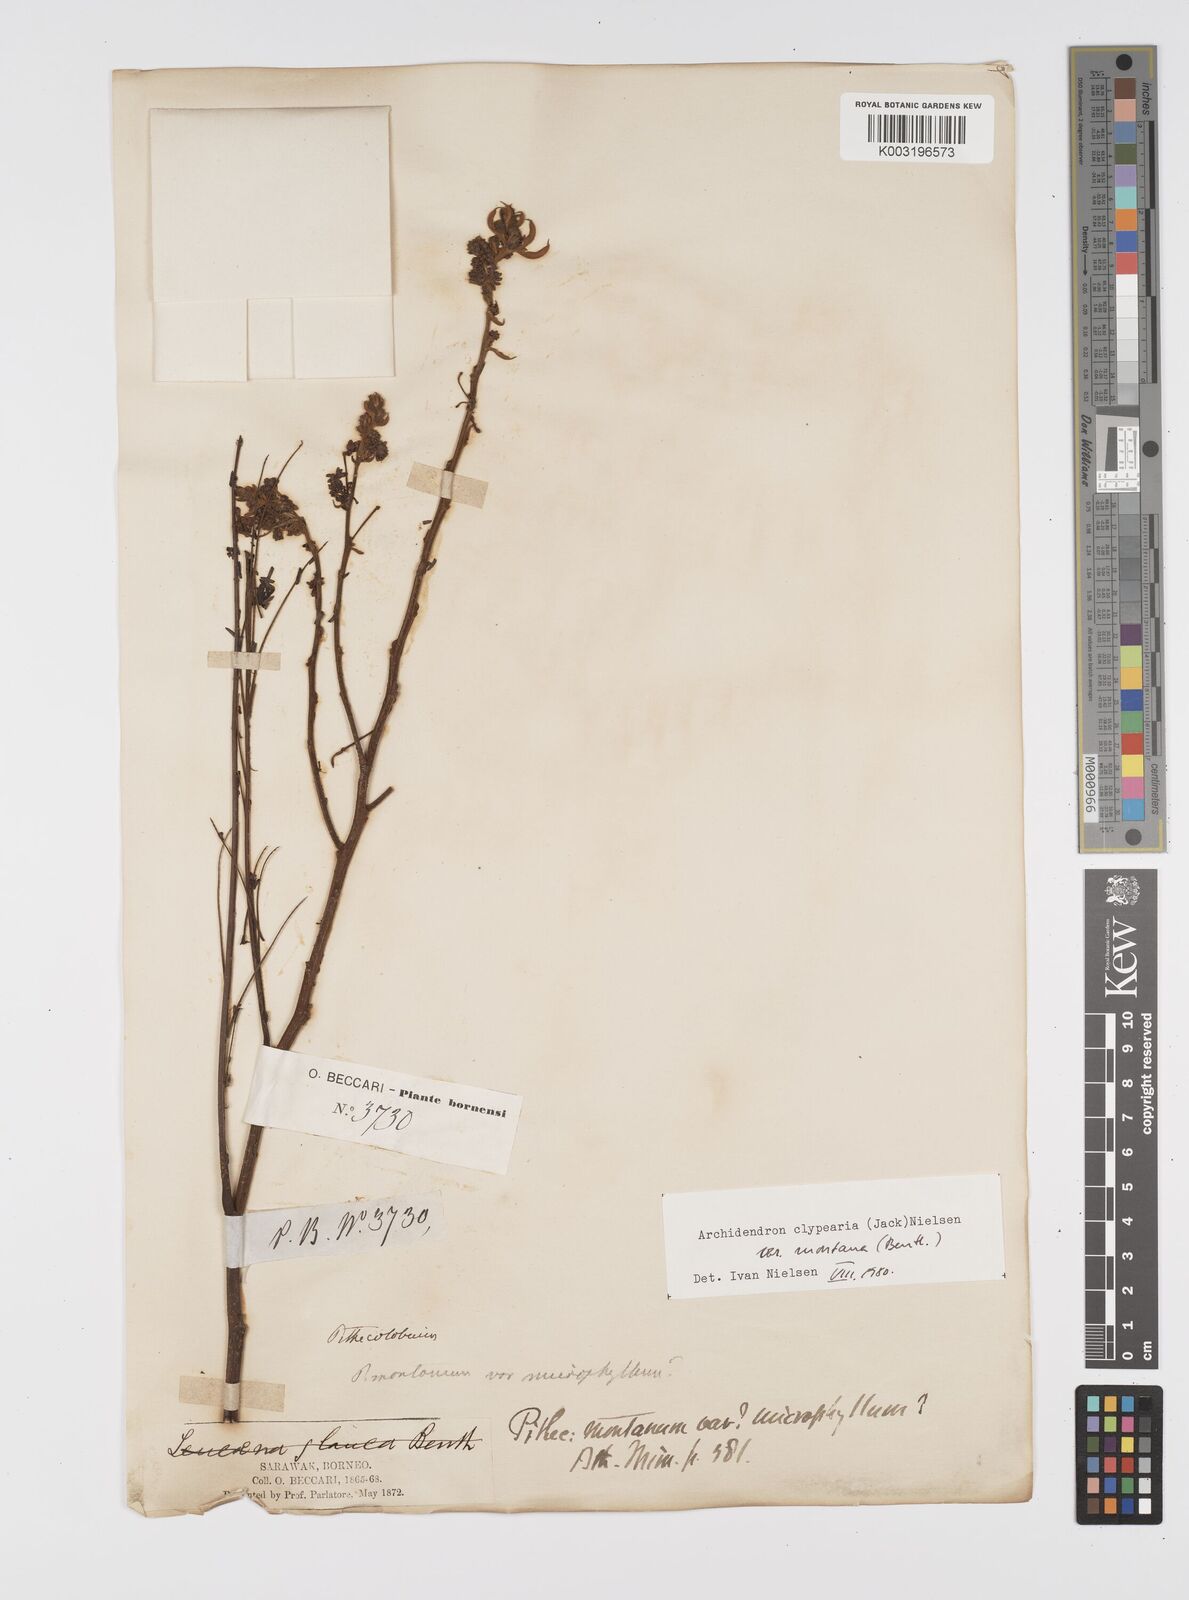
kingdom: Plantae
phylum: Tracheophyta
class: Magnoliopsida
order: Fabales
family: Fabaceae
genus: Archidendron
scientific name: Archidendron clypearia
